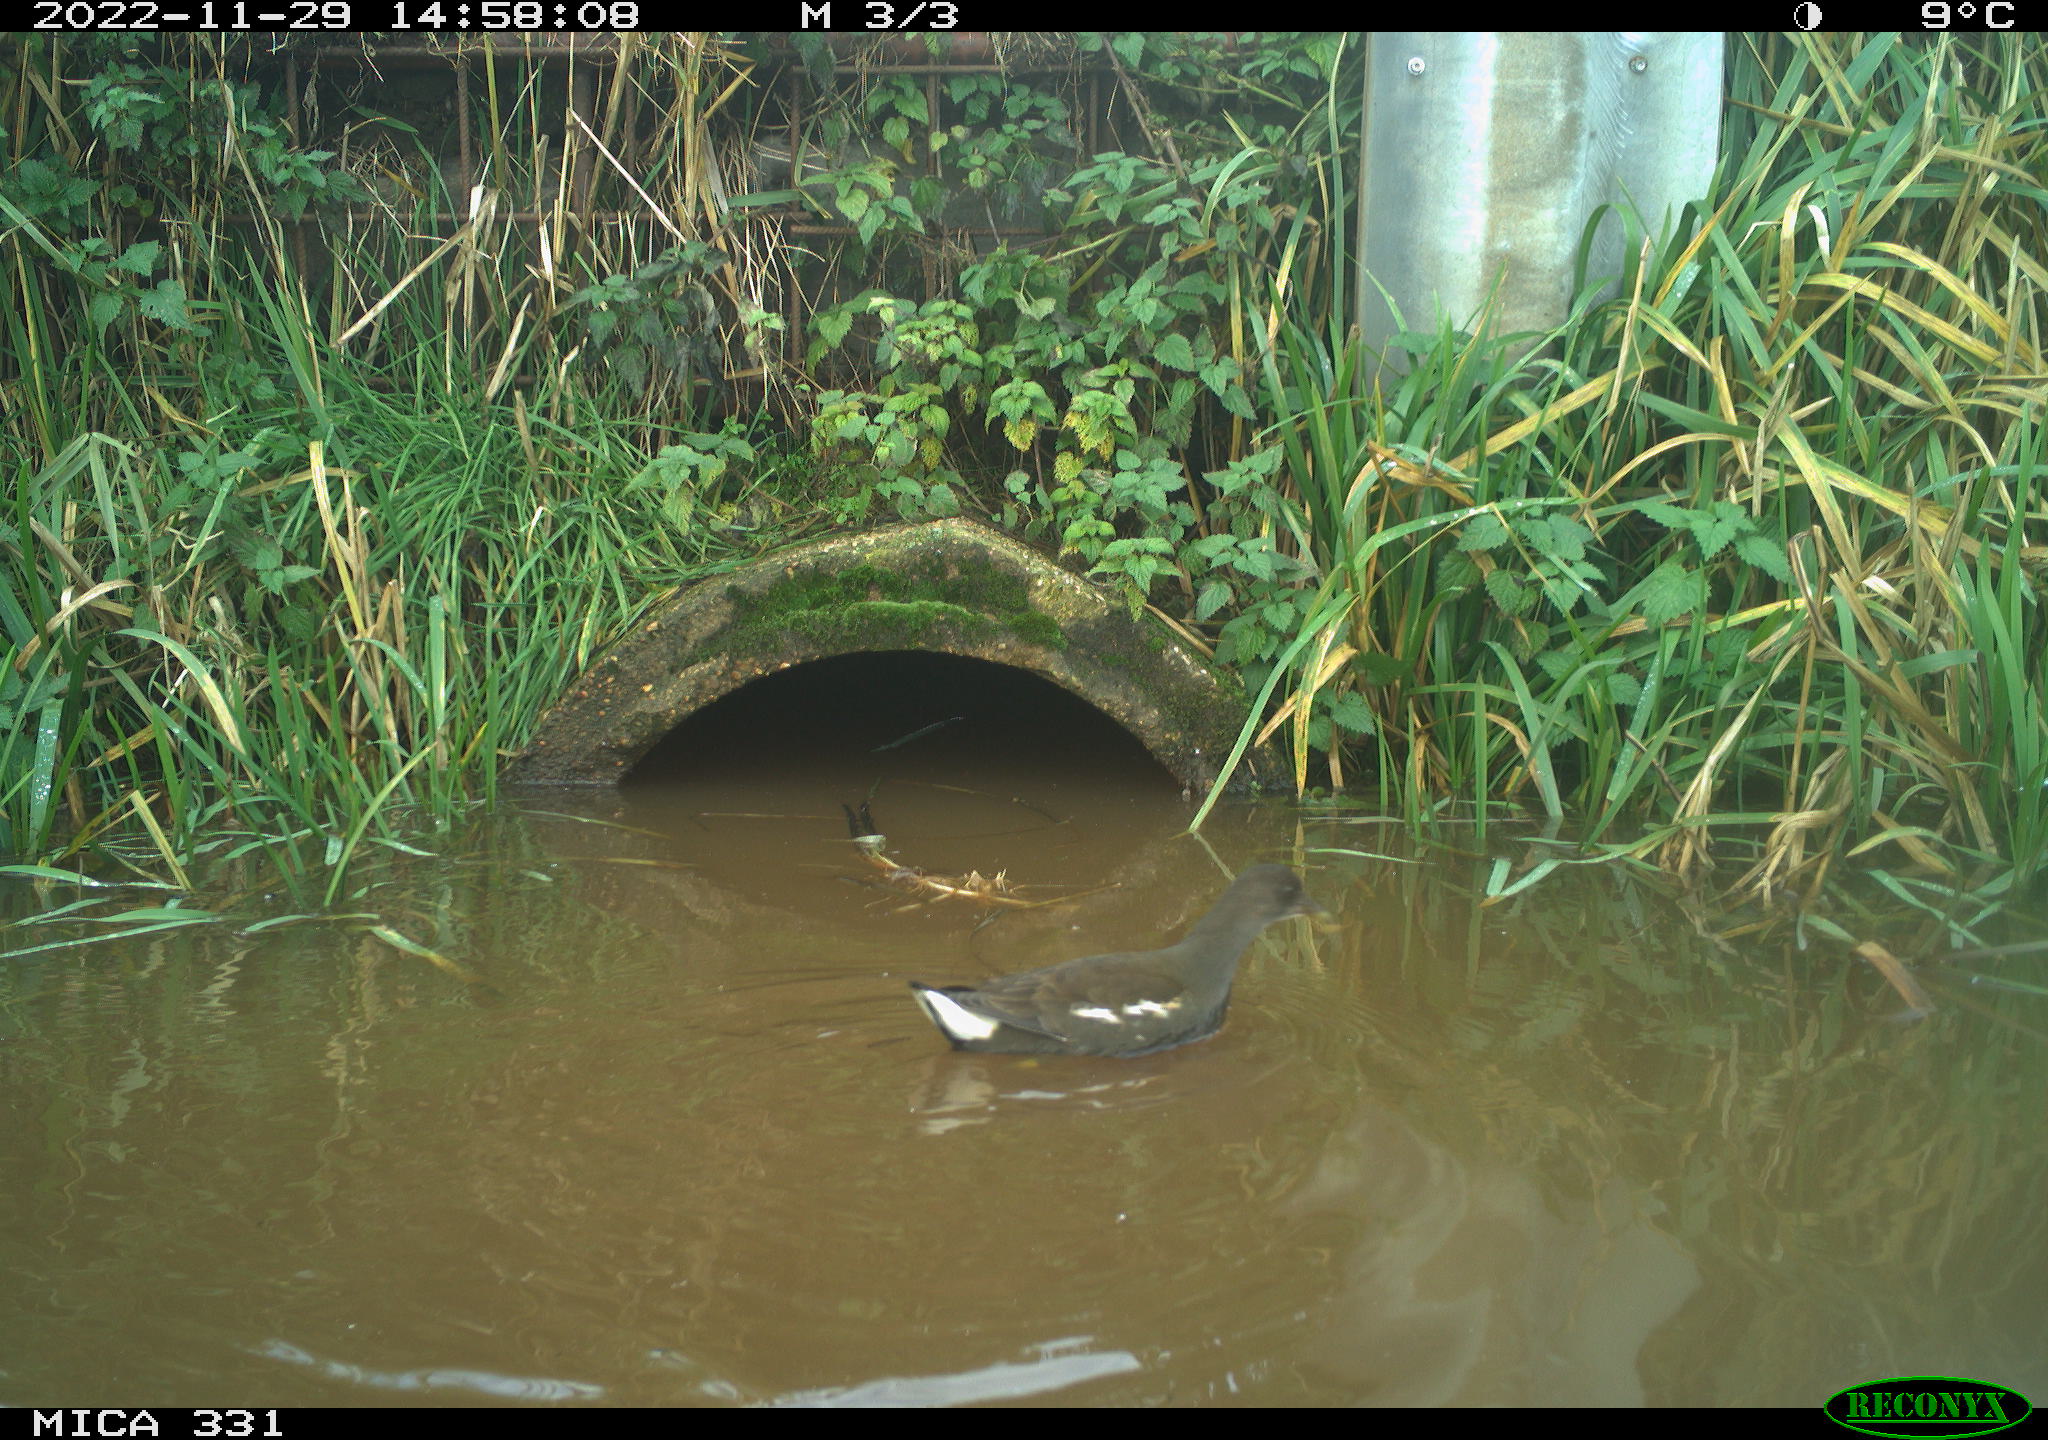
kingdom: Animalia
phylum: Chordata
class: Aves
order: Gruiformes
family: Rallidae
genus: Gallinula
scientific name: Gallinula chloropus
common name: Common moorhen
